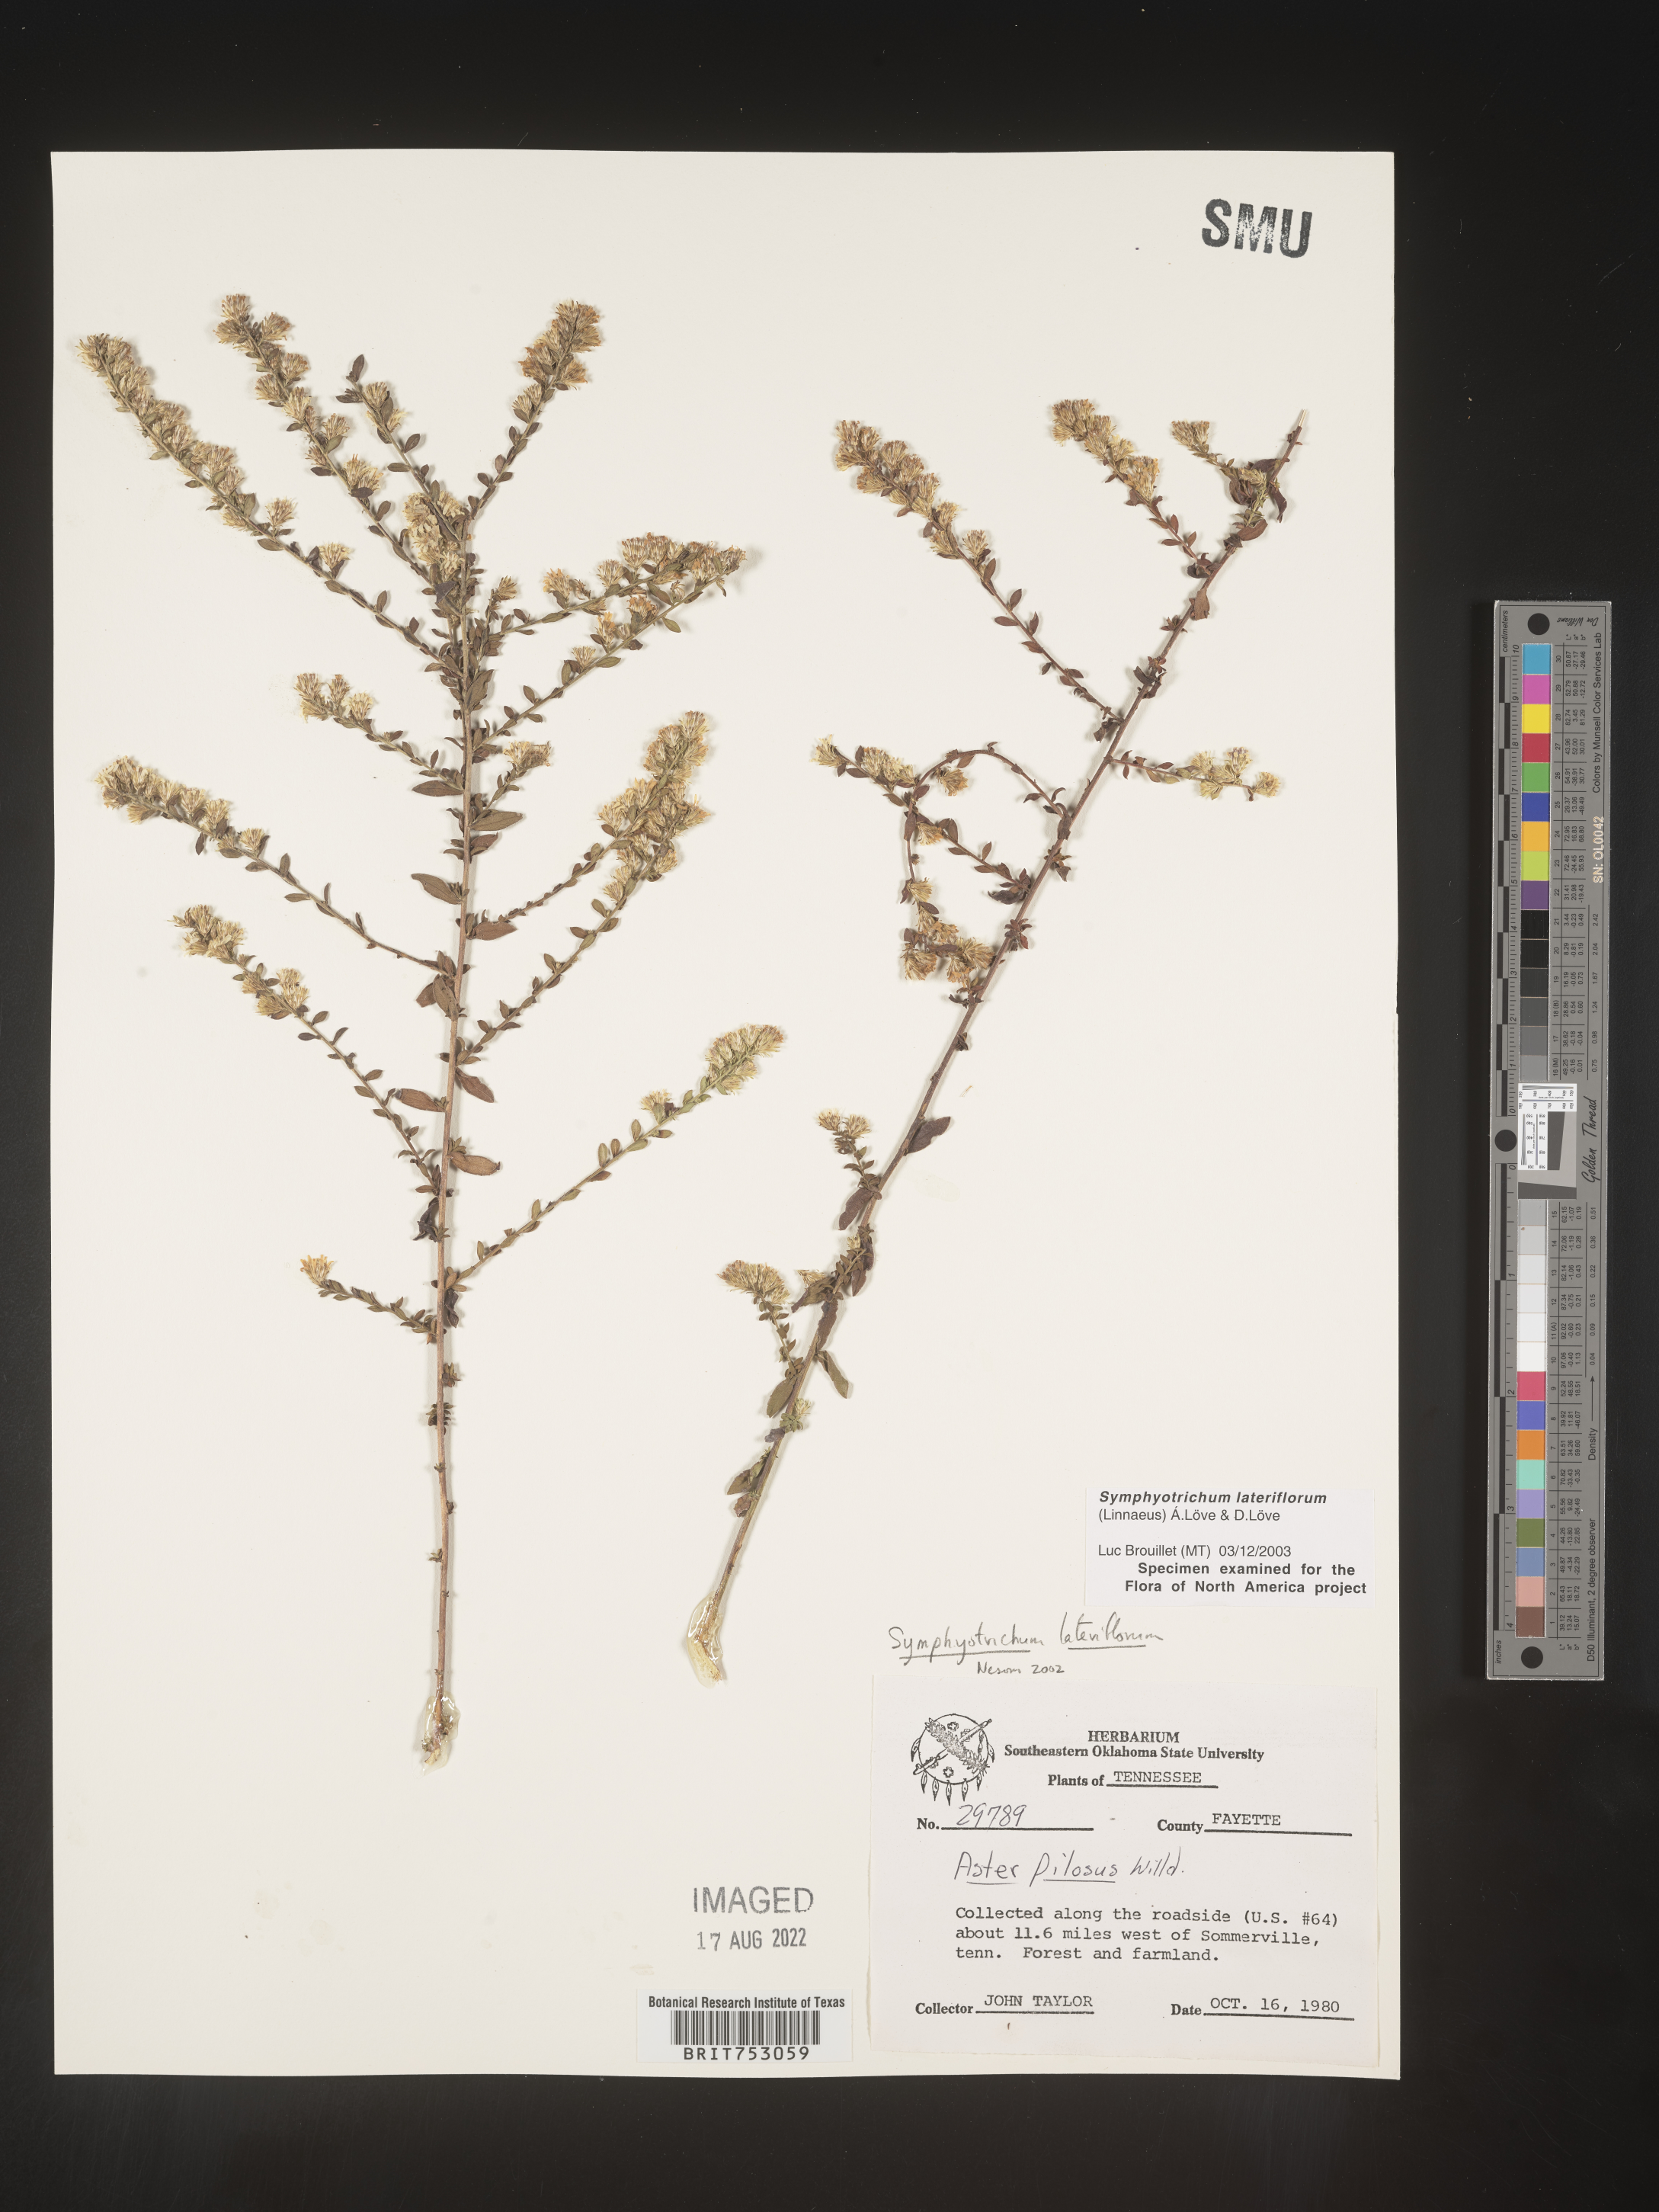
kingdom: Plantae
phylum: Tracheophyta
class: Magnoliopsida
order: Asterales
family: Asteraceae
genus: Symphyotrichum
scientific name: Symphyotrichum lateriflorum
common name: Calico aster
